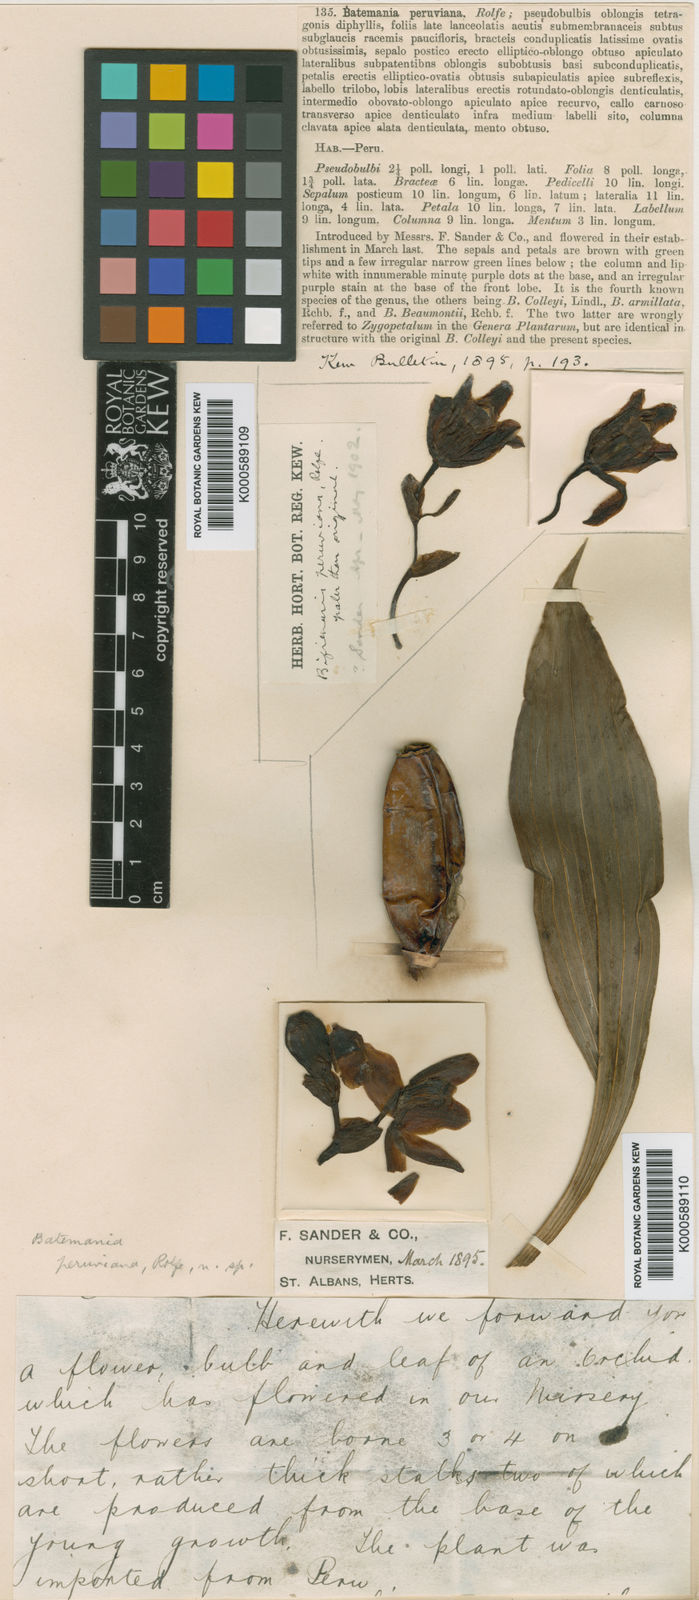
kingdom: Plantae
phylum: Tracheophyta
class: Liliopsida
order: Asparagales
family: Orchidaceae
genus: Batemannia
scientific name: Batemannia colleyi
